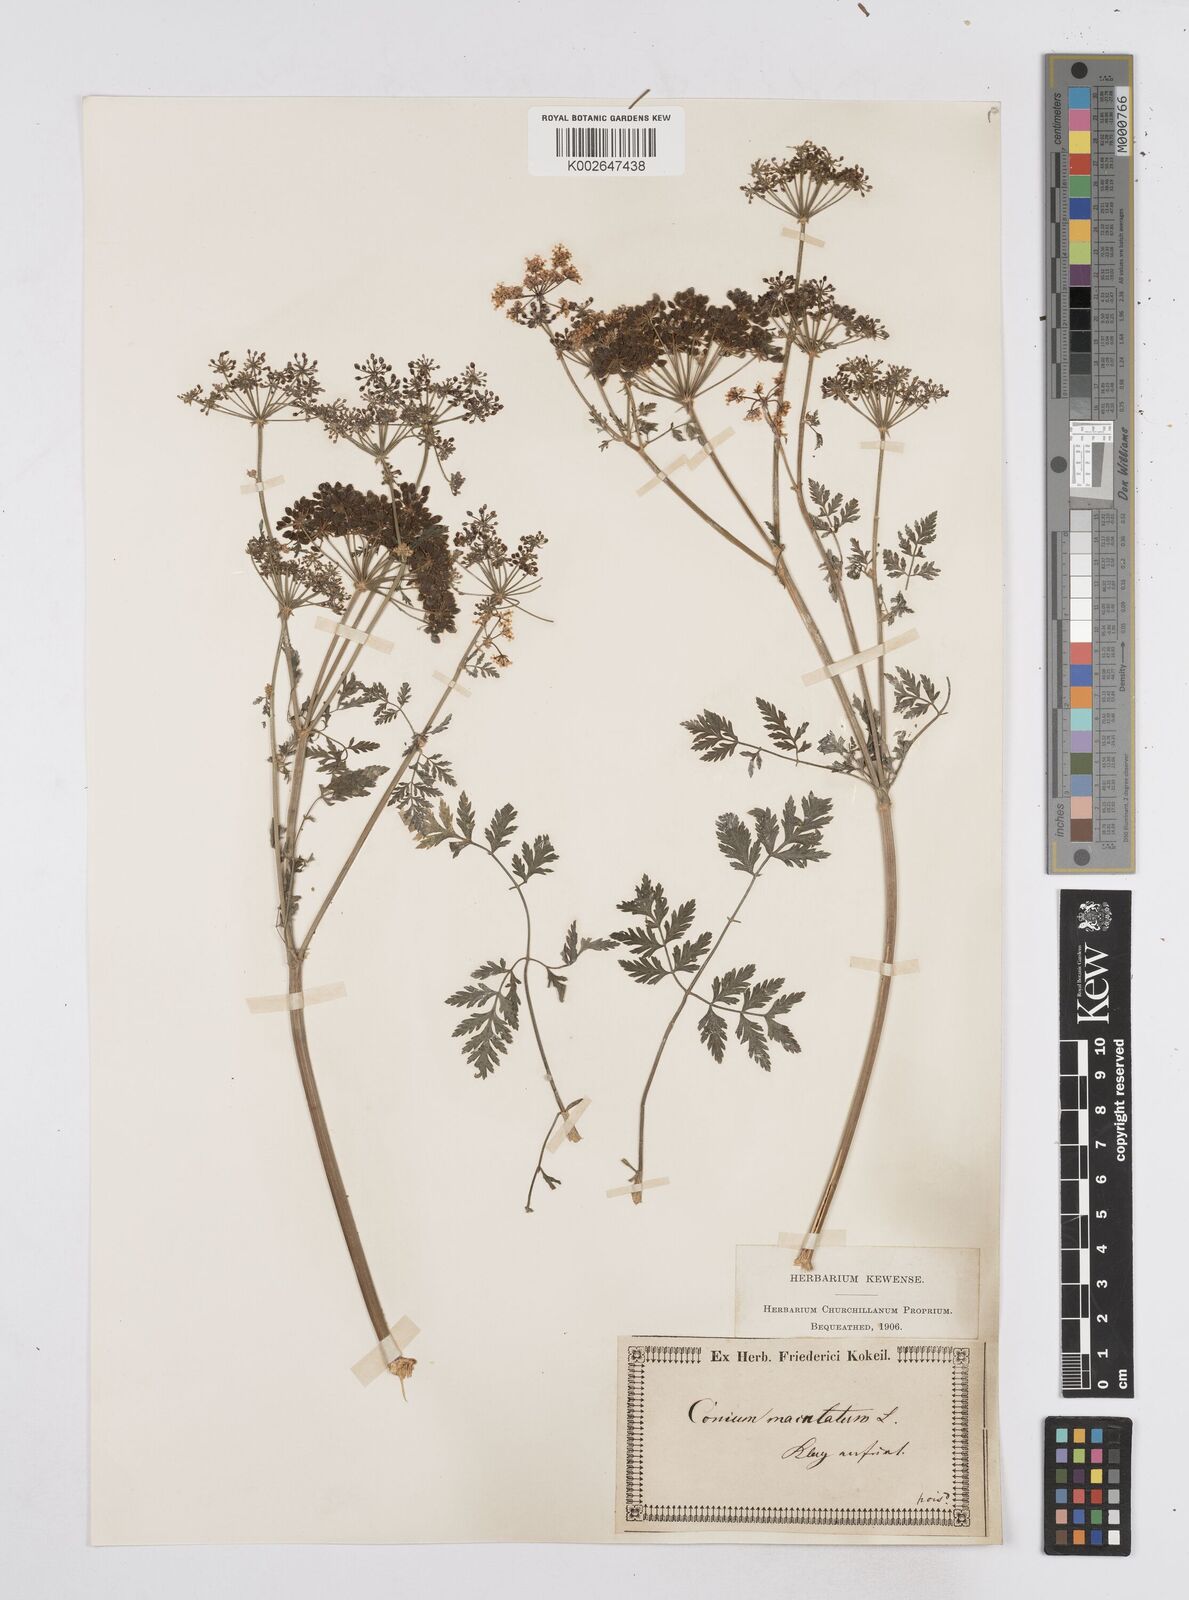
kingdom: Plantae
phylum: Tracheophyta
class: Magnoliopsida
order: Apiales
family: Apiaceae
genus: Conium
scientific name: Conium maculatum
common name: Hemlock
